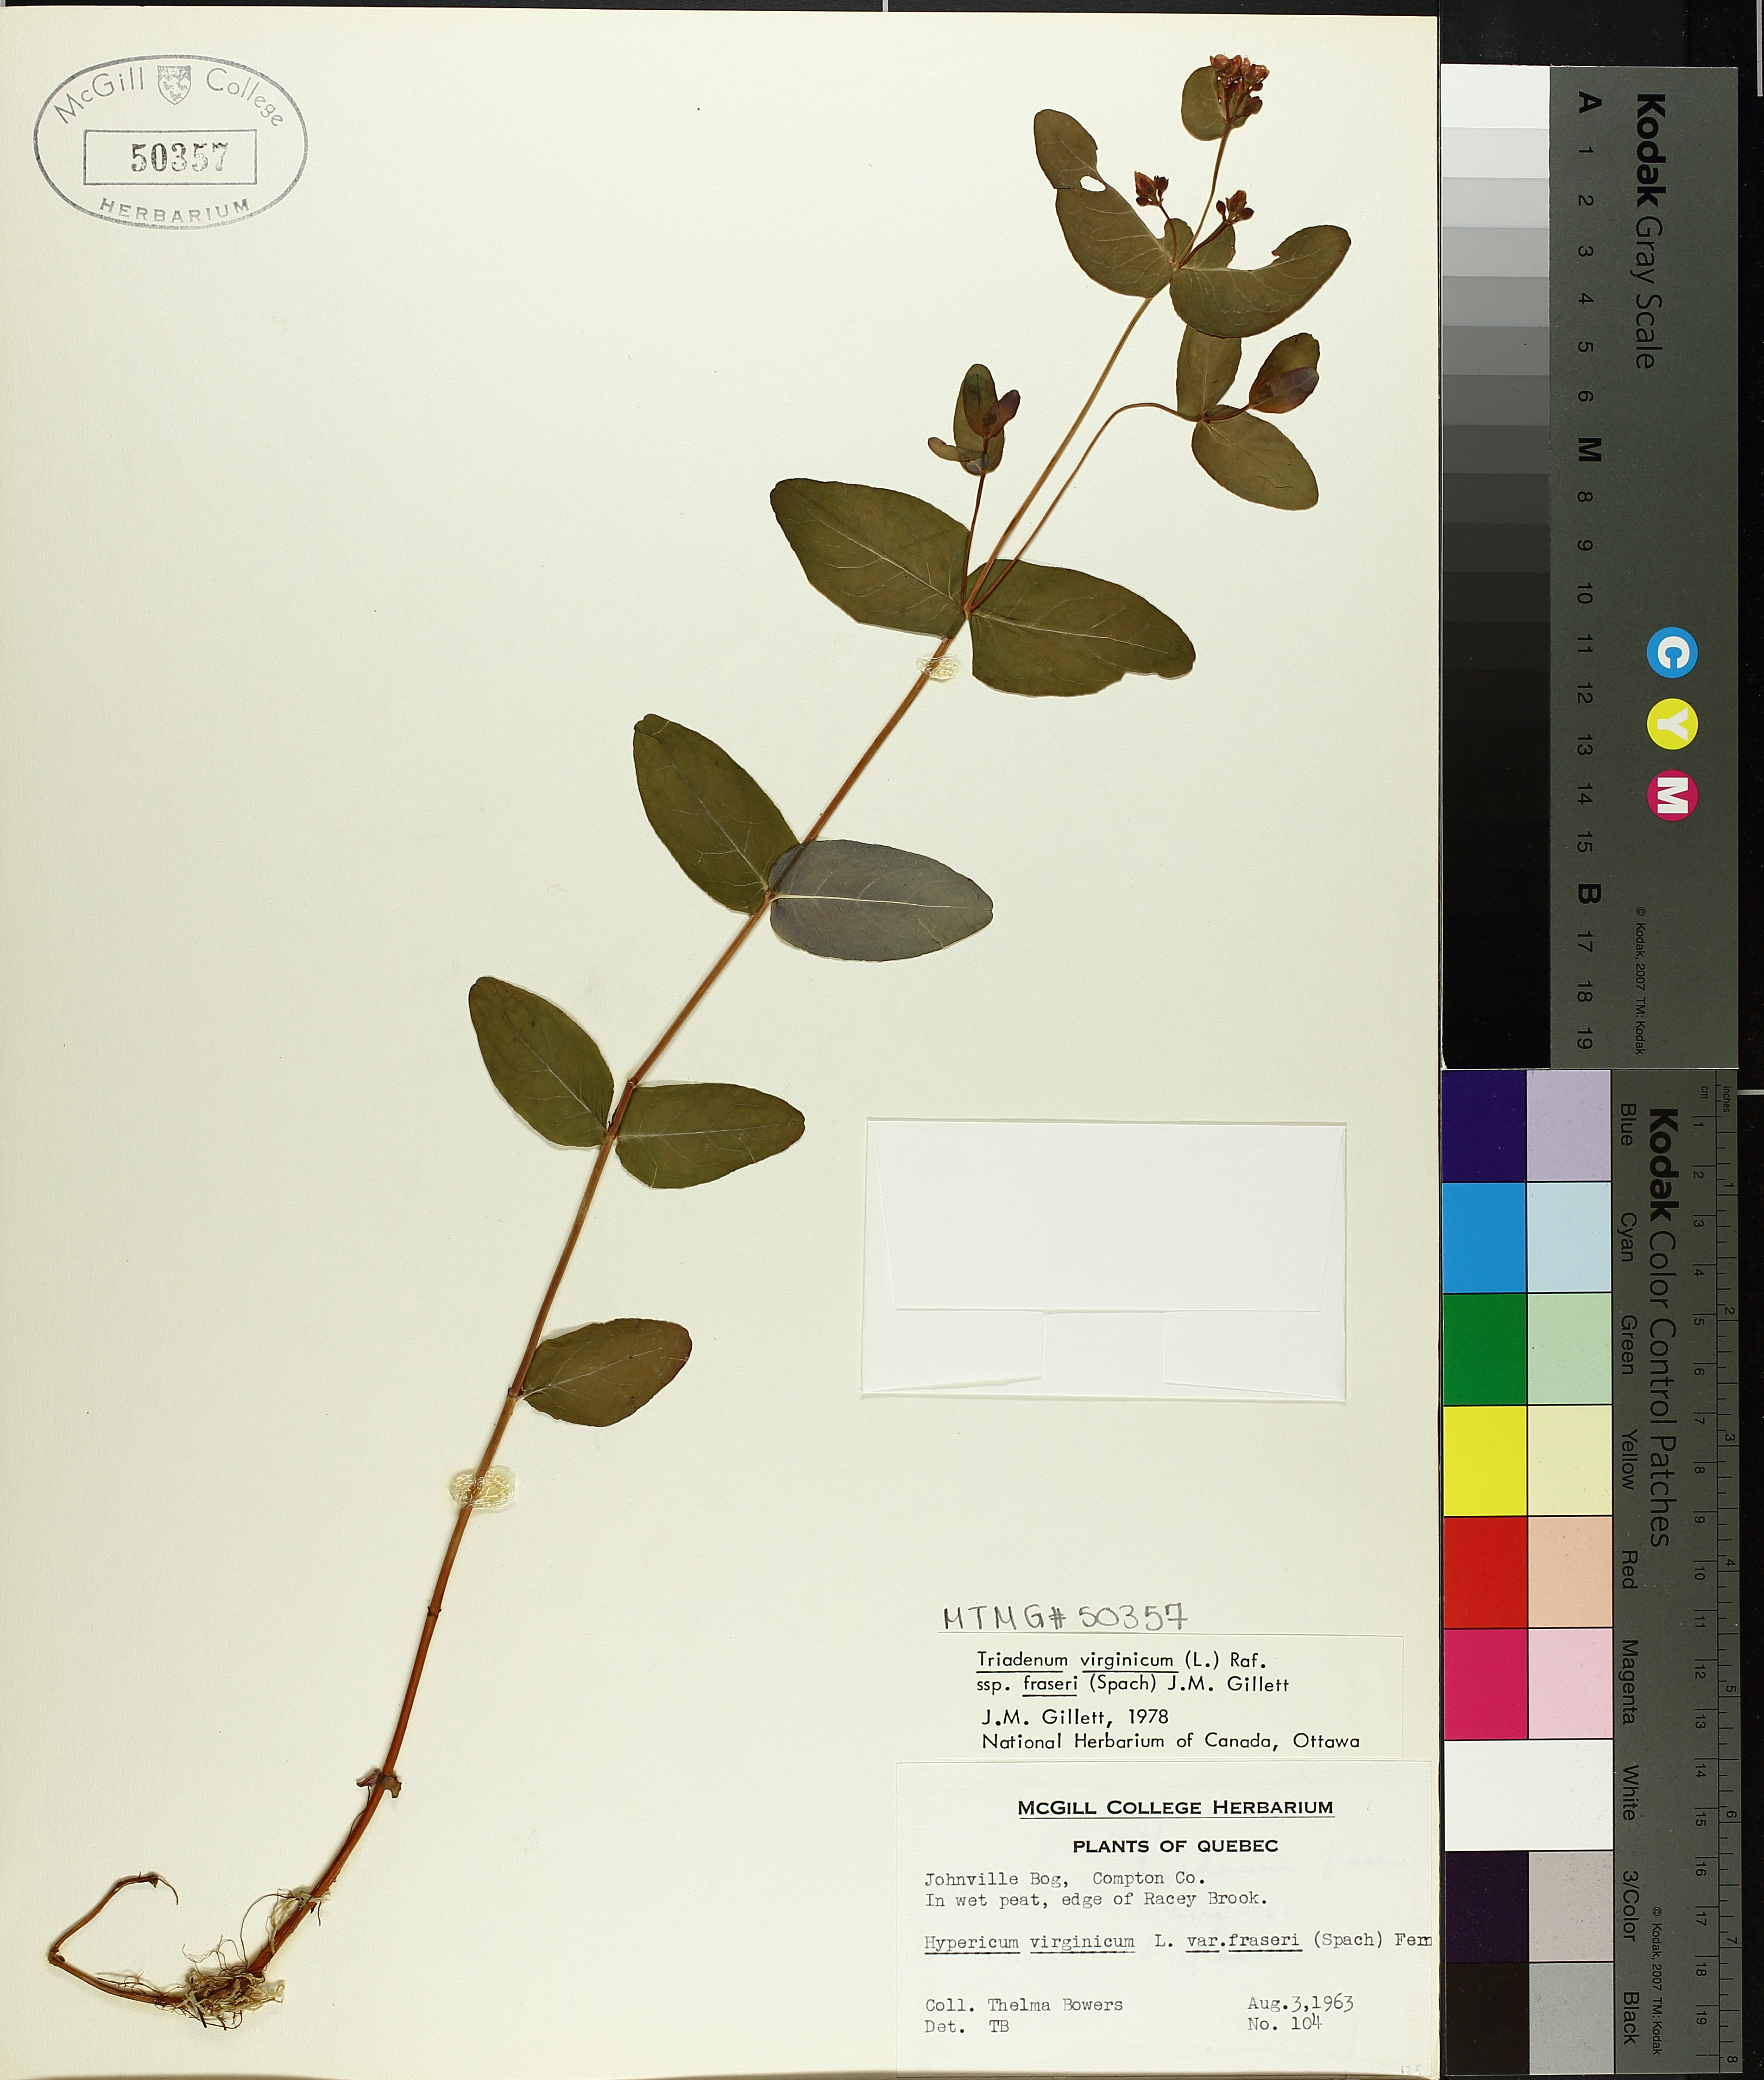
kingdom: Plantae
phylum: Tracheophyta
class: Magnoliopsida
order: Malpighiales
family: Hypericaceae
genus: Triadenum
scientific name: Triadenum fraseri
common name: Fraser's marsh st. johnswort
